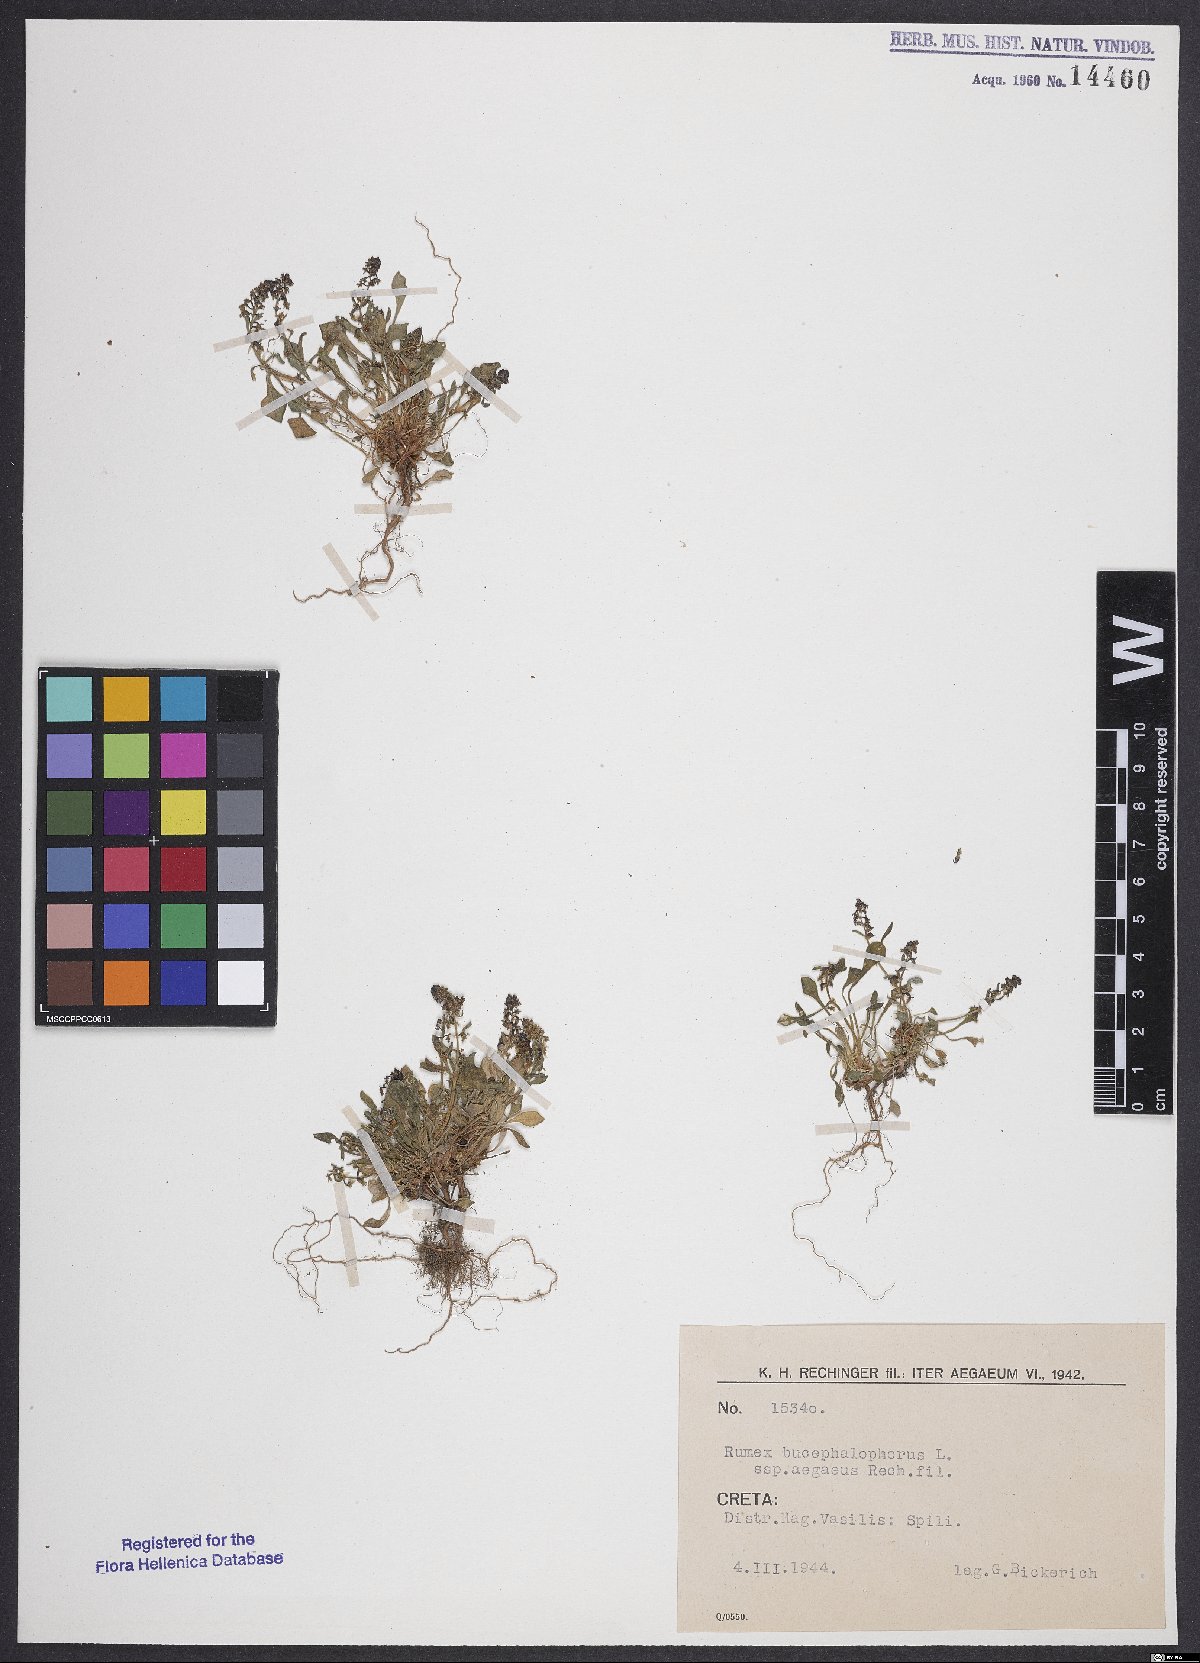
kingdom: Plantae
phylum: Tracheophyta
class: Magnoliopsida
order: Caryophyllales
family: Polygonaceae
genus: Rumex
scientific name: Rumex bucephalophorus
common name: Red dock
